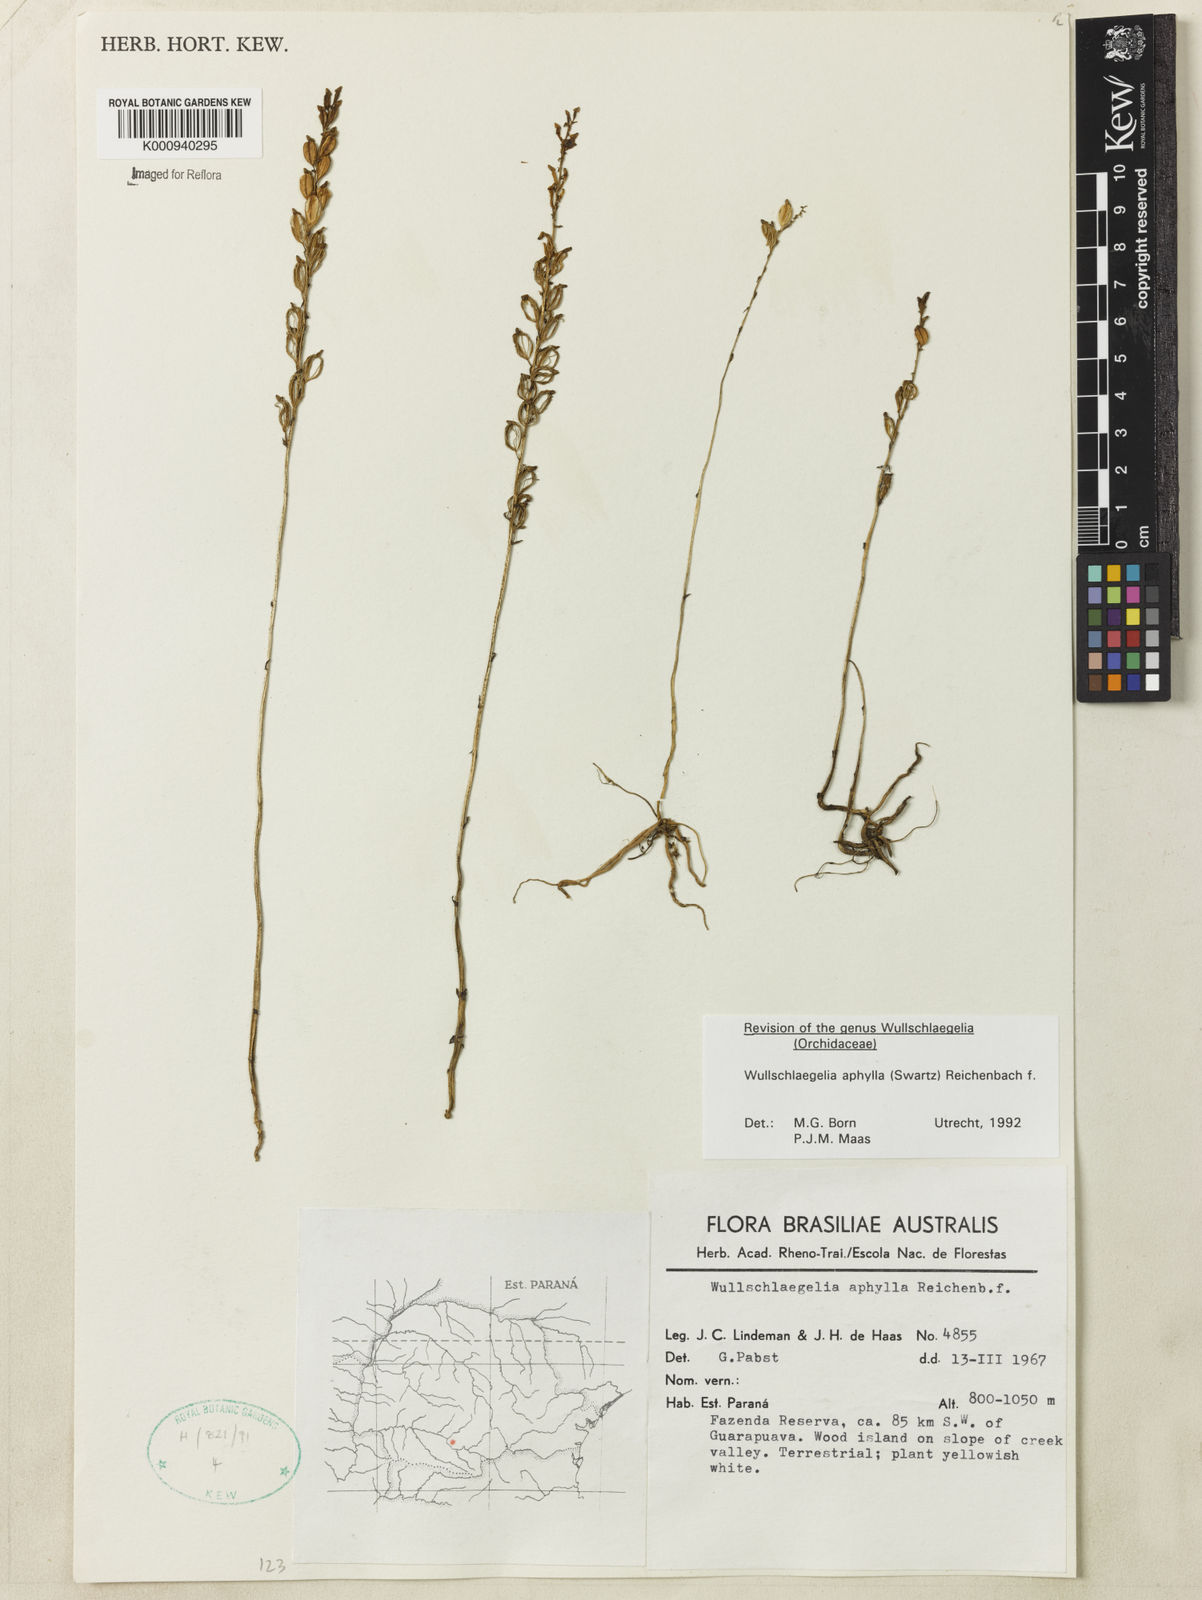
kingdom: Plantae
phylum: Tracheophyta
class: Liliopsida
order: Asparagales
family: Orchidaceae
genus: Wullschlaegelia
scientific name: Wullschlaegelia aphylla
